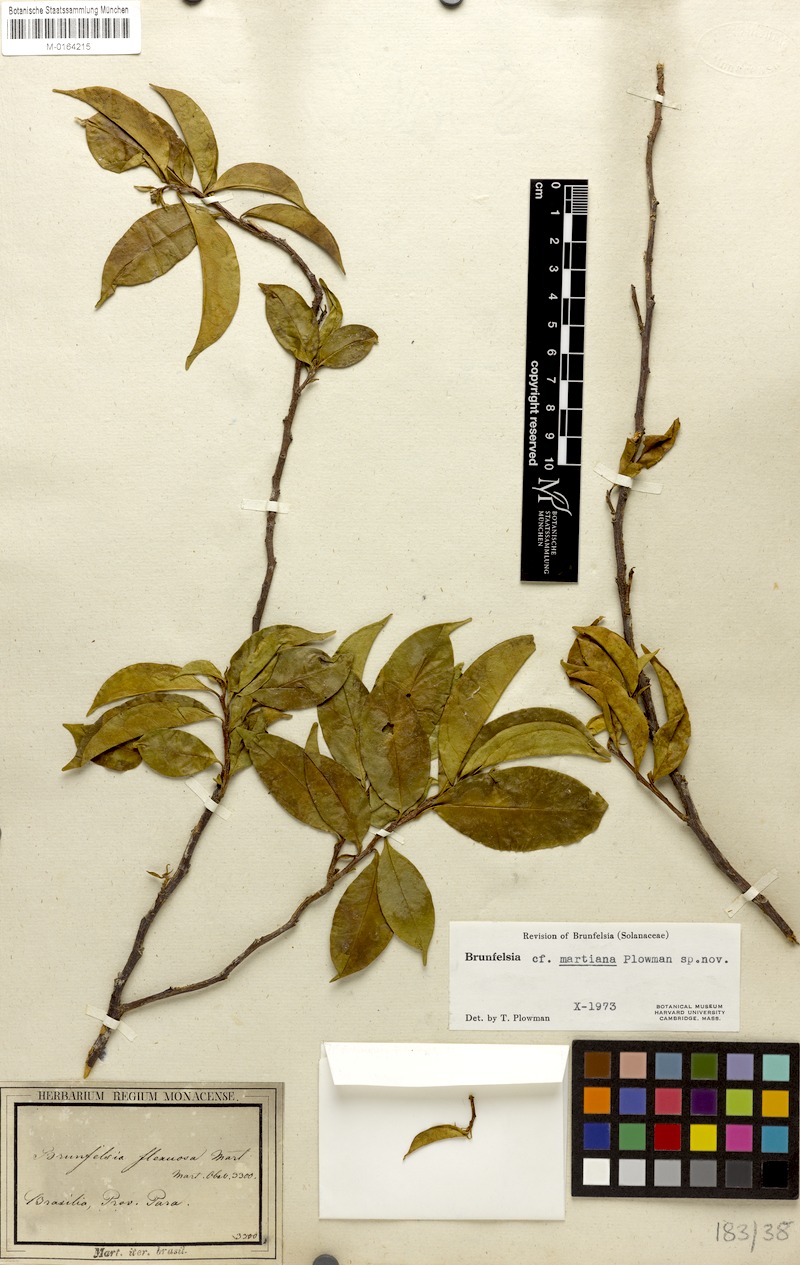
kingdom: Plantae
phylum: Tracheophyta
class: Magnoliopsida
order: Solanales
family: Solanaceae
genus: Brunfelsia
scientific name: Brunfelsia martiana
